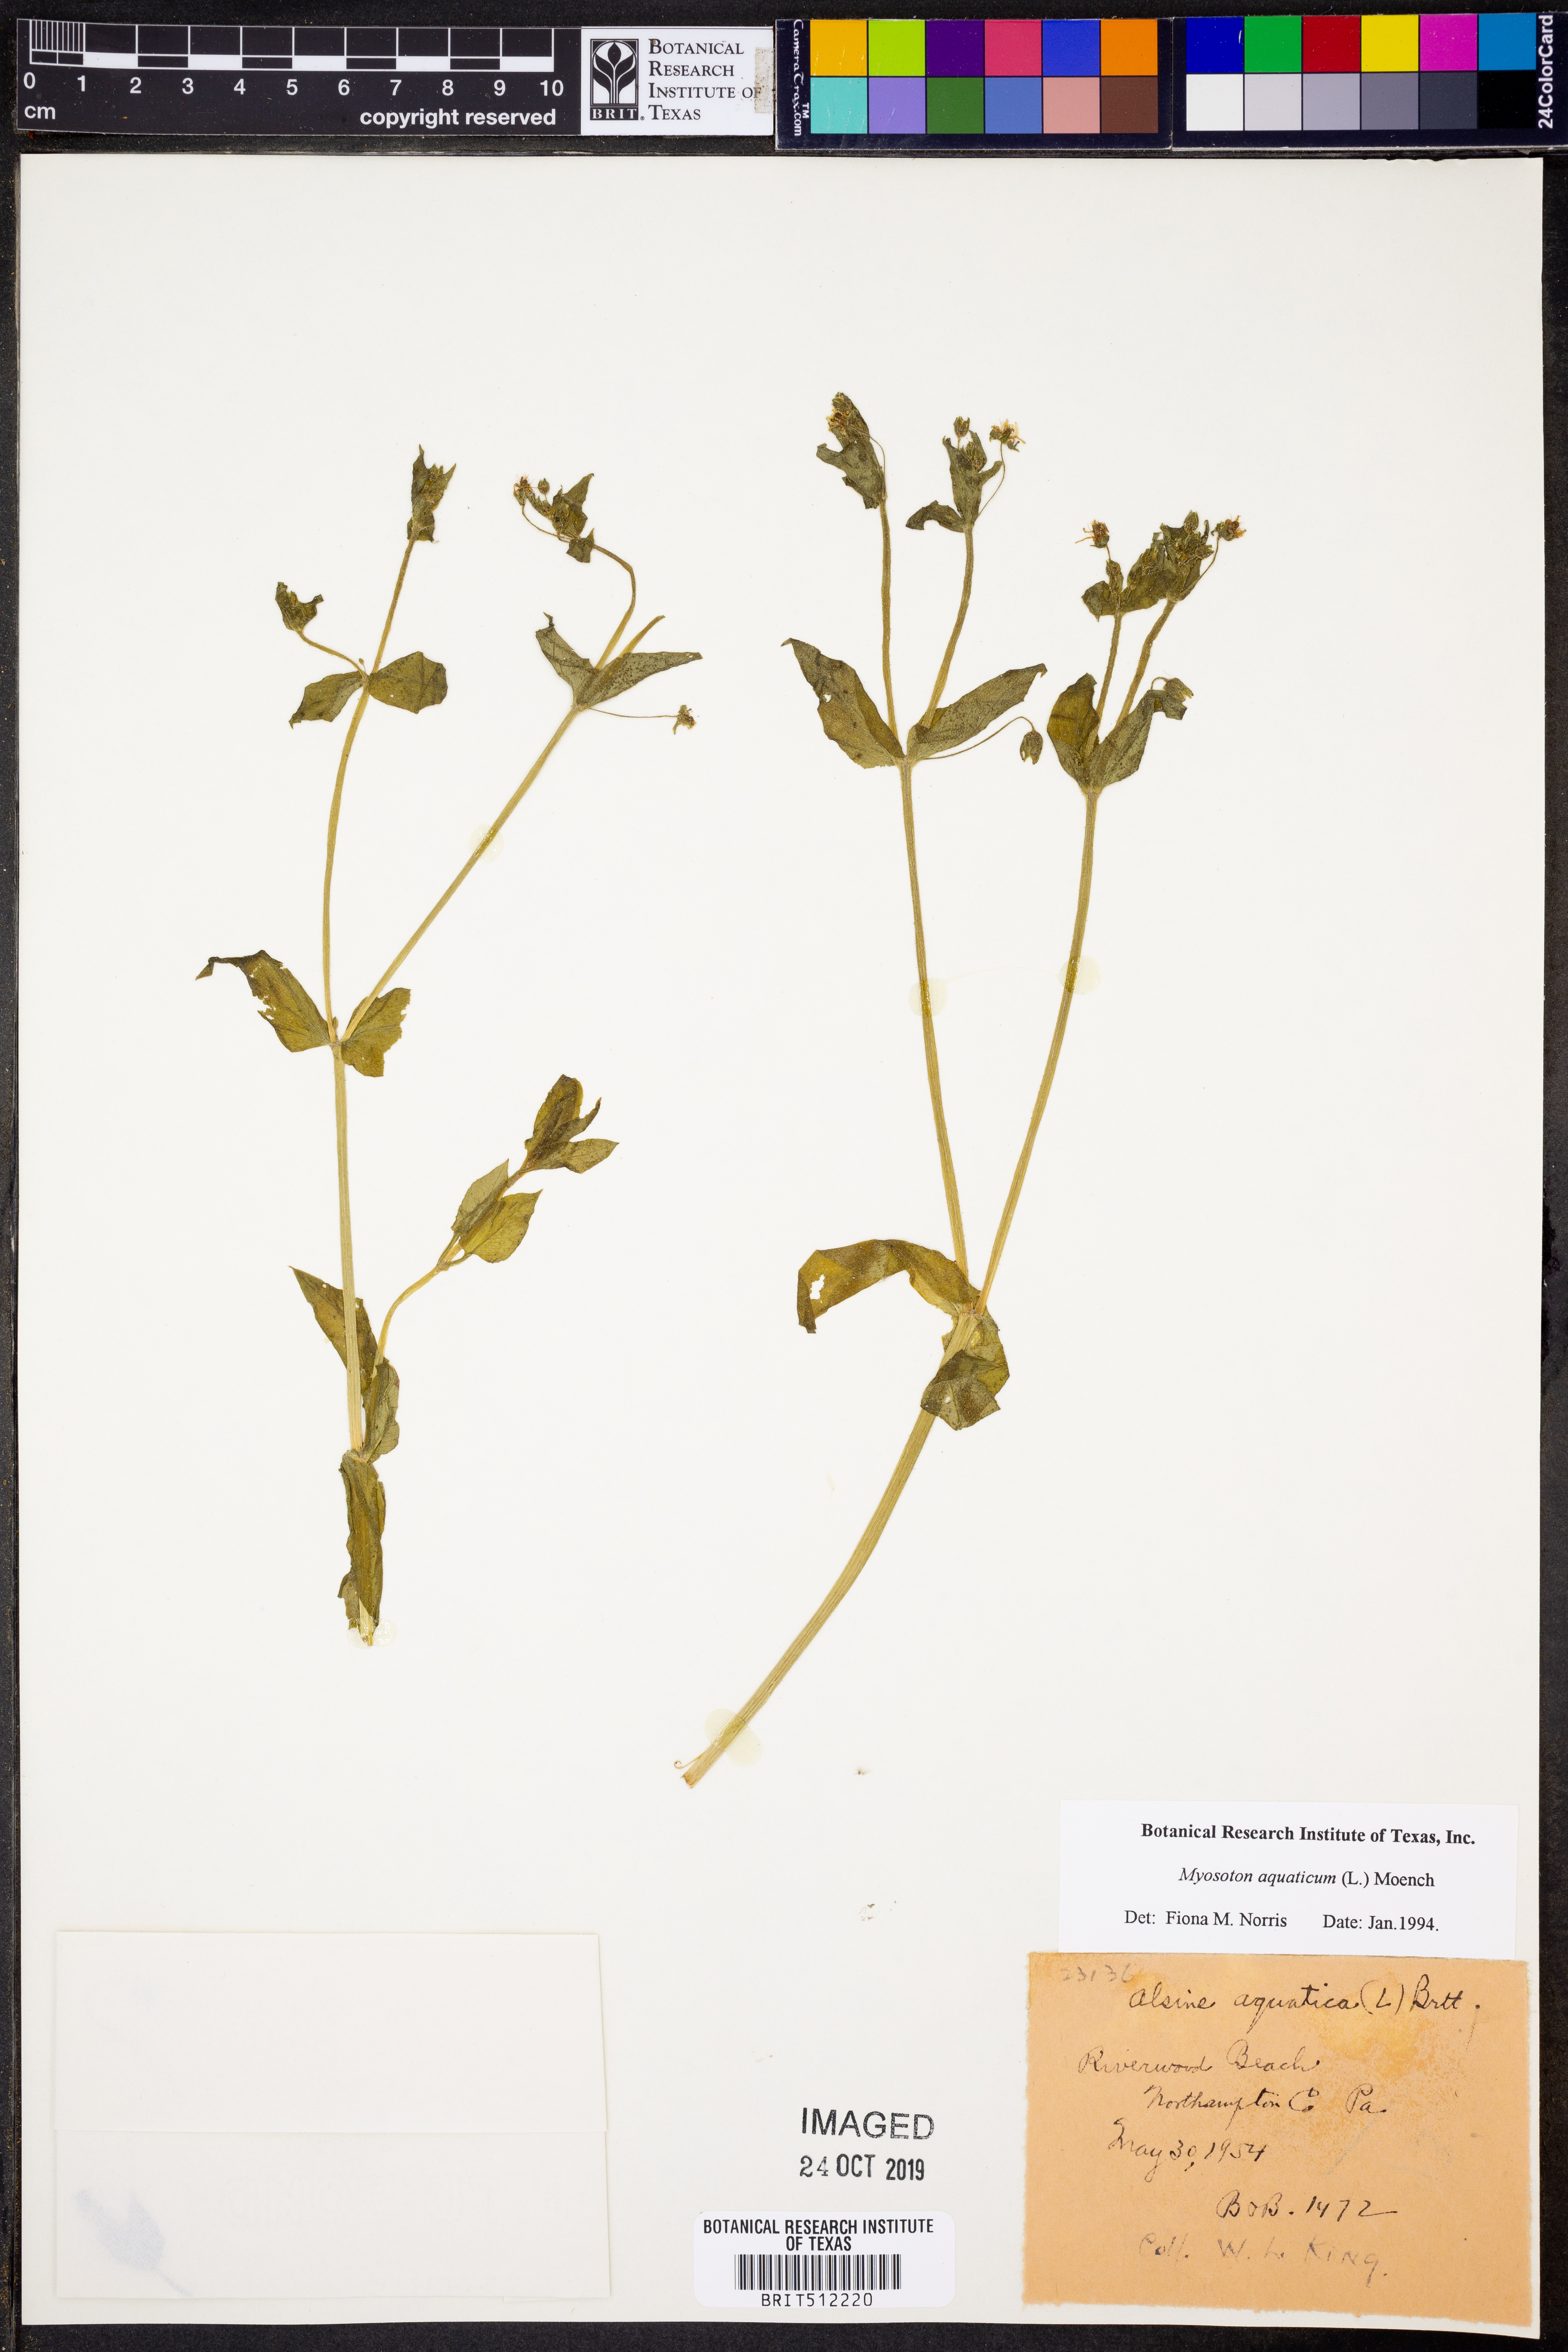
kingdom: Plantae
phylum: Tracheophyta
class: Magnoliopsida
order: Caryophyllales
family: Caryophyllaceae
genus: Stellaria
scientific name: Stellaria aquatica
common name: Water chickweed
